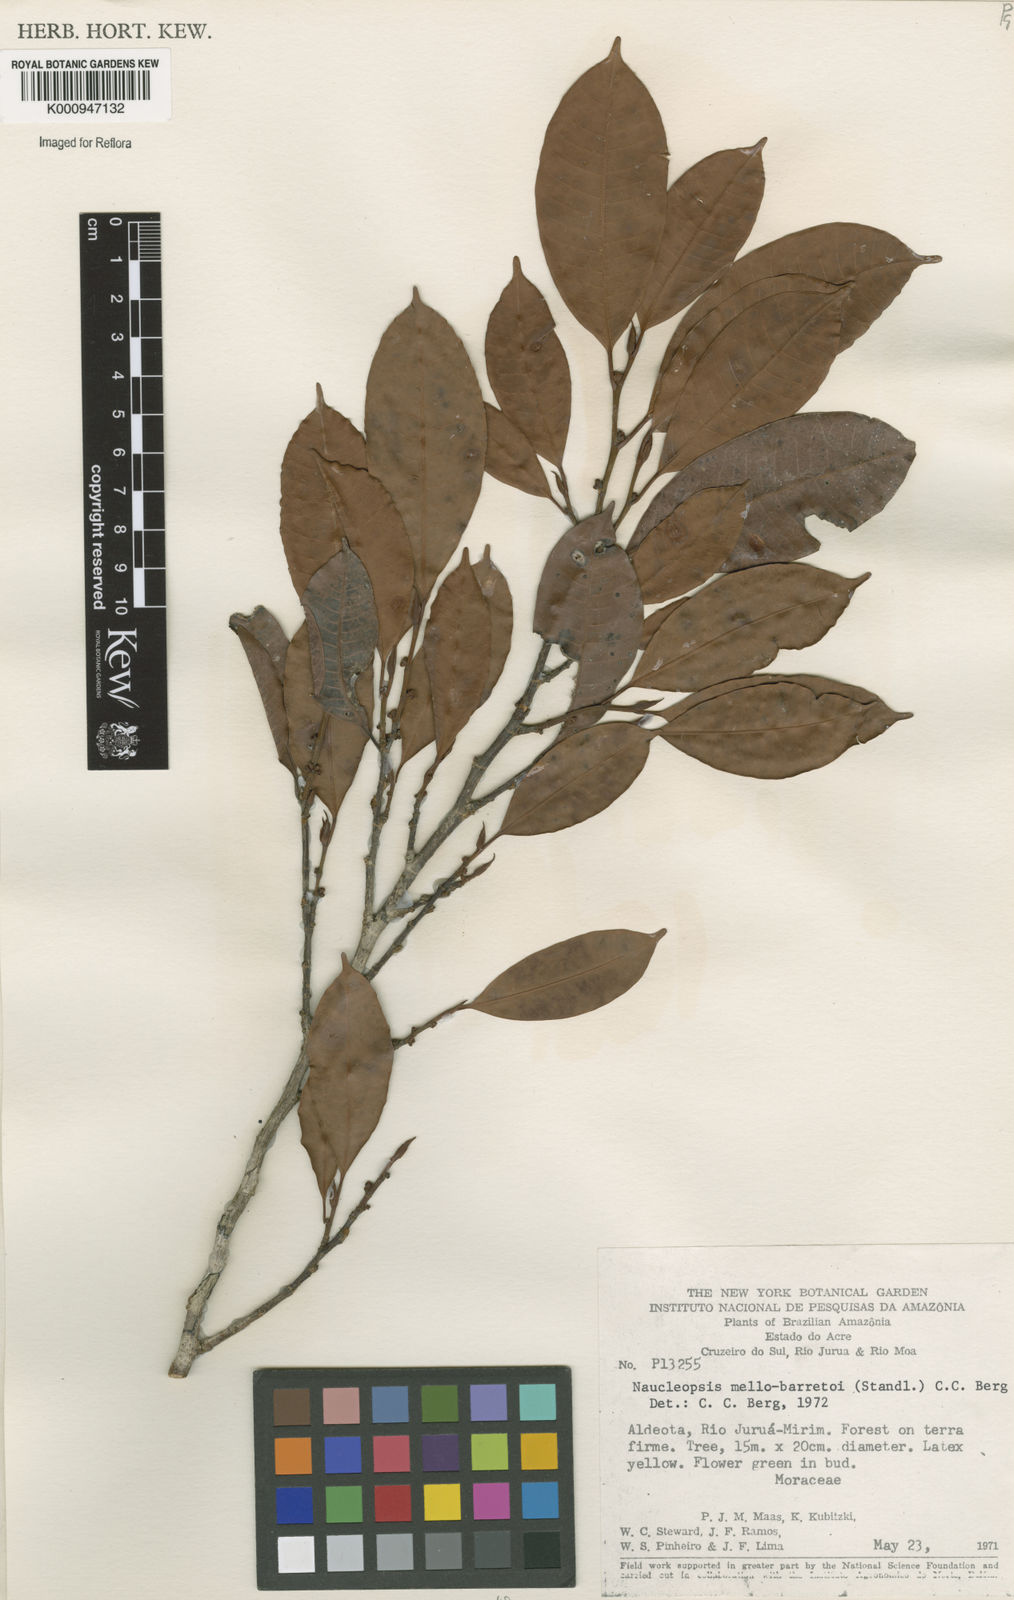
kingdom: Plantae
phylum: Tracheophyta
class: Magnoliopsida
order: Rosales
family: Moraceae
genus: Naucleopsis
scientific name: Naucleopsis oblongifolia
